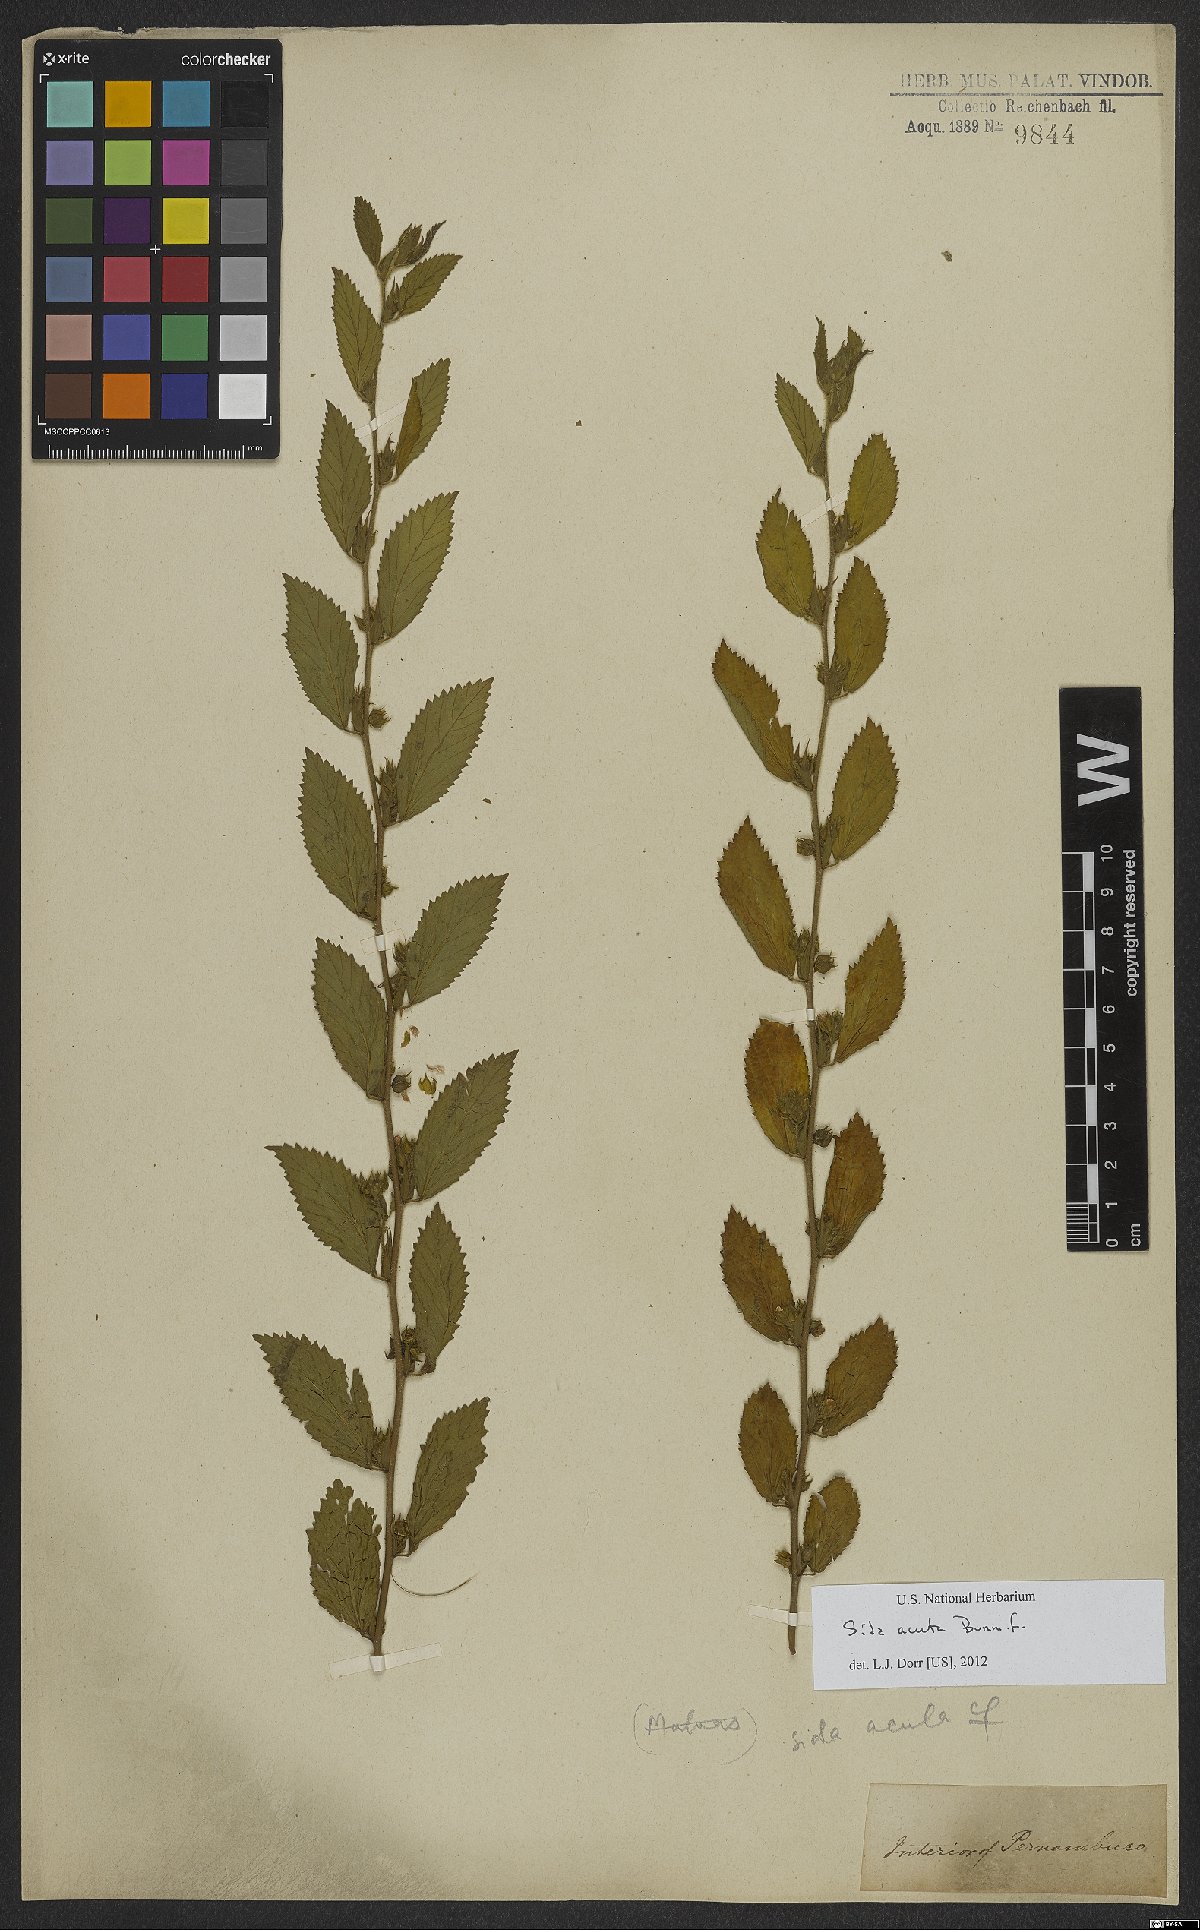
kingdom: Plantae
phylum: Tracheophyta
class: Magnoliopsida
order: Malvales
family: Malvaceae
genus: Sida
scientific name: Sida acuta
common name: Common wireweed
